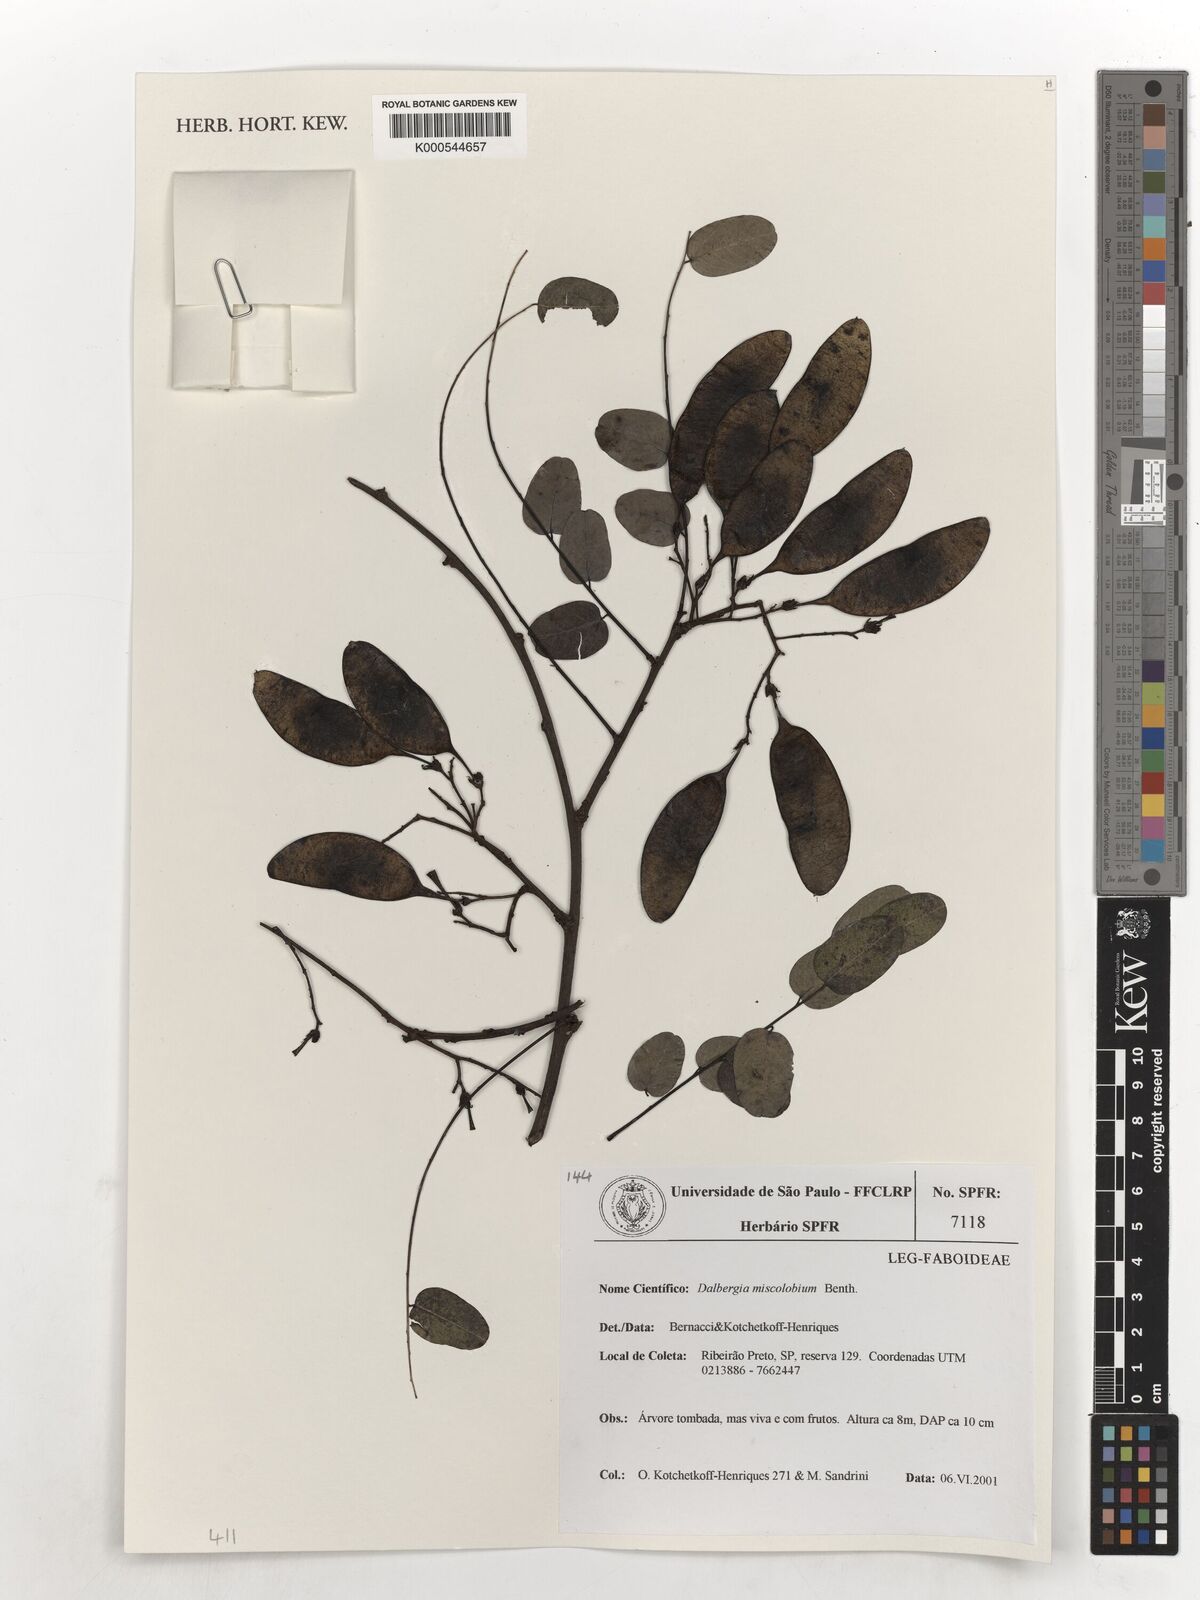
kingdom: Plantae
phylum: Tracheophyta
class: Magnoliopsida
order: Fabales
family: Fabaceae
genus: Dalbergia
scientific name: Dalbergia miscolobium
